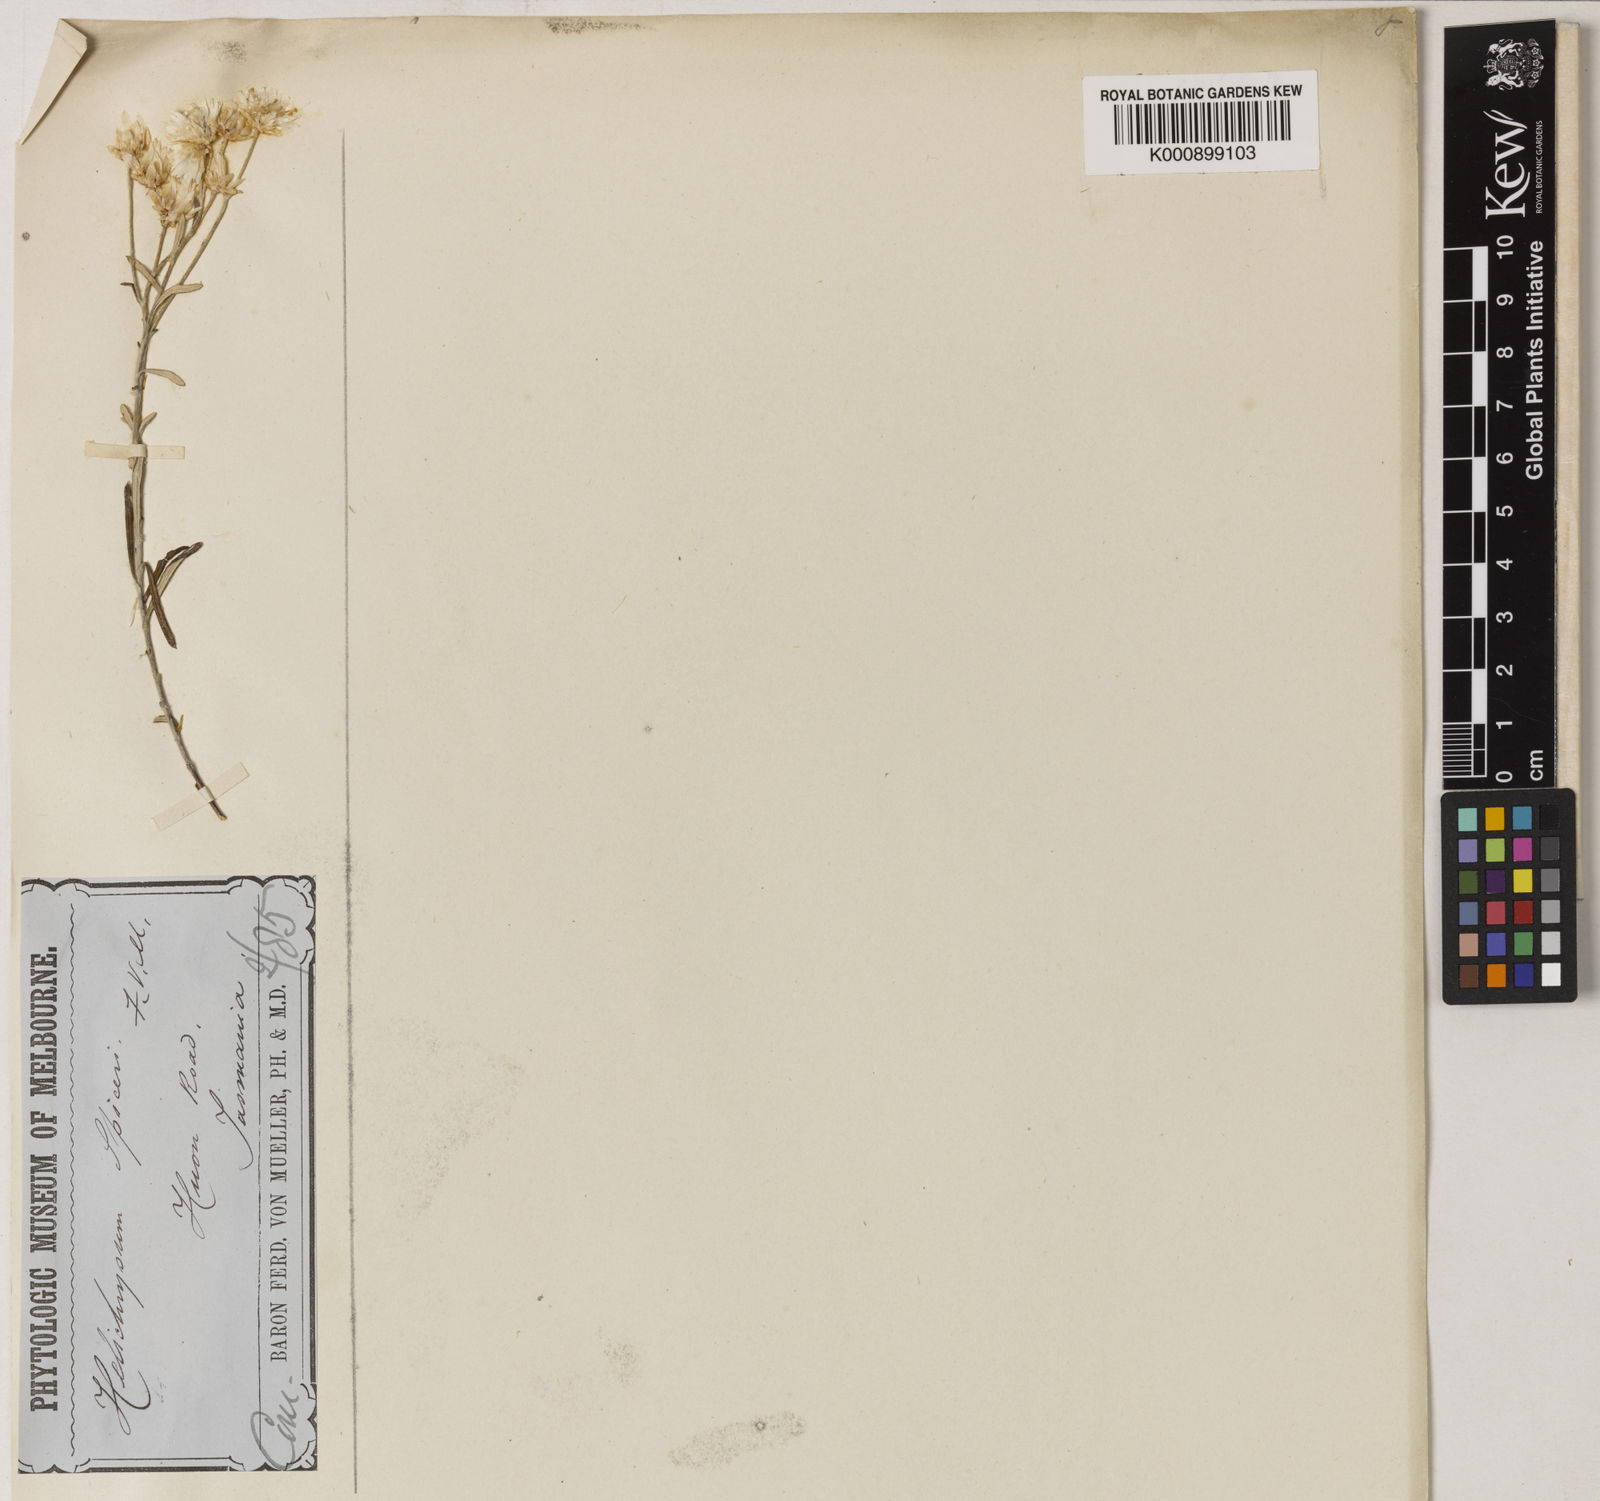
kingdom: Plantae
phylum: Tracheophyta
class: Magnoliopsida
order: Asterales
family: Asteraceae
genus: Argentipallium
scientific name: Argentipallium spiceri
